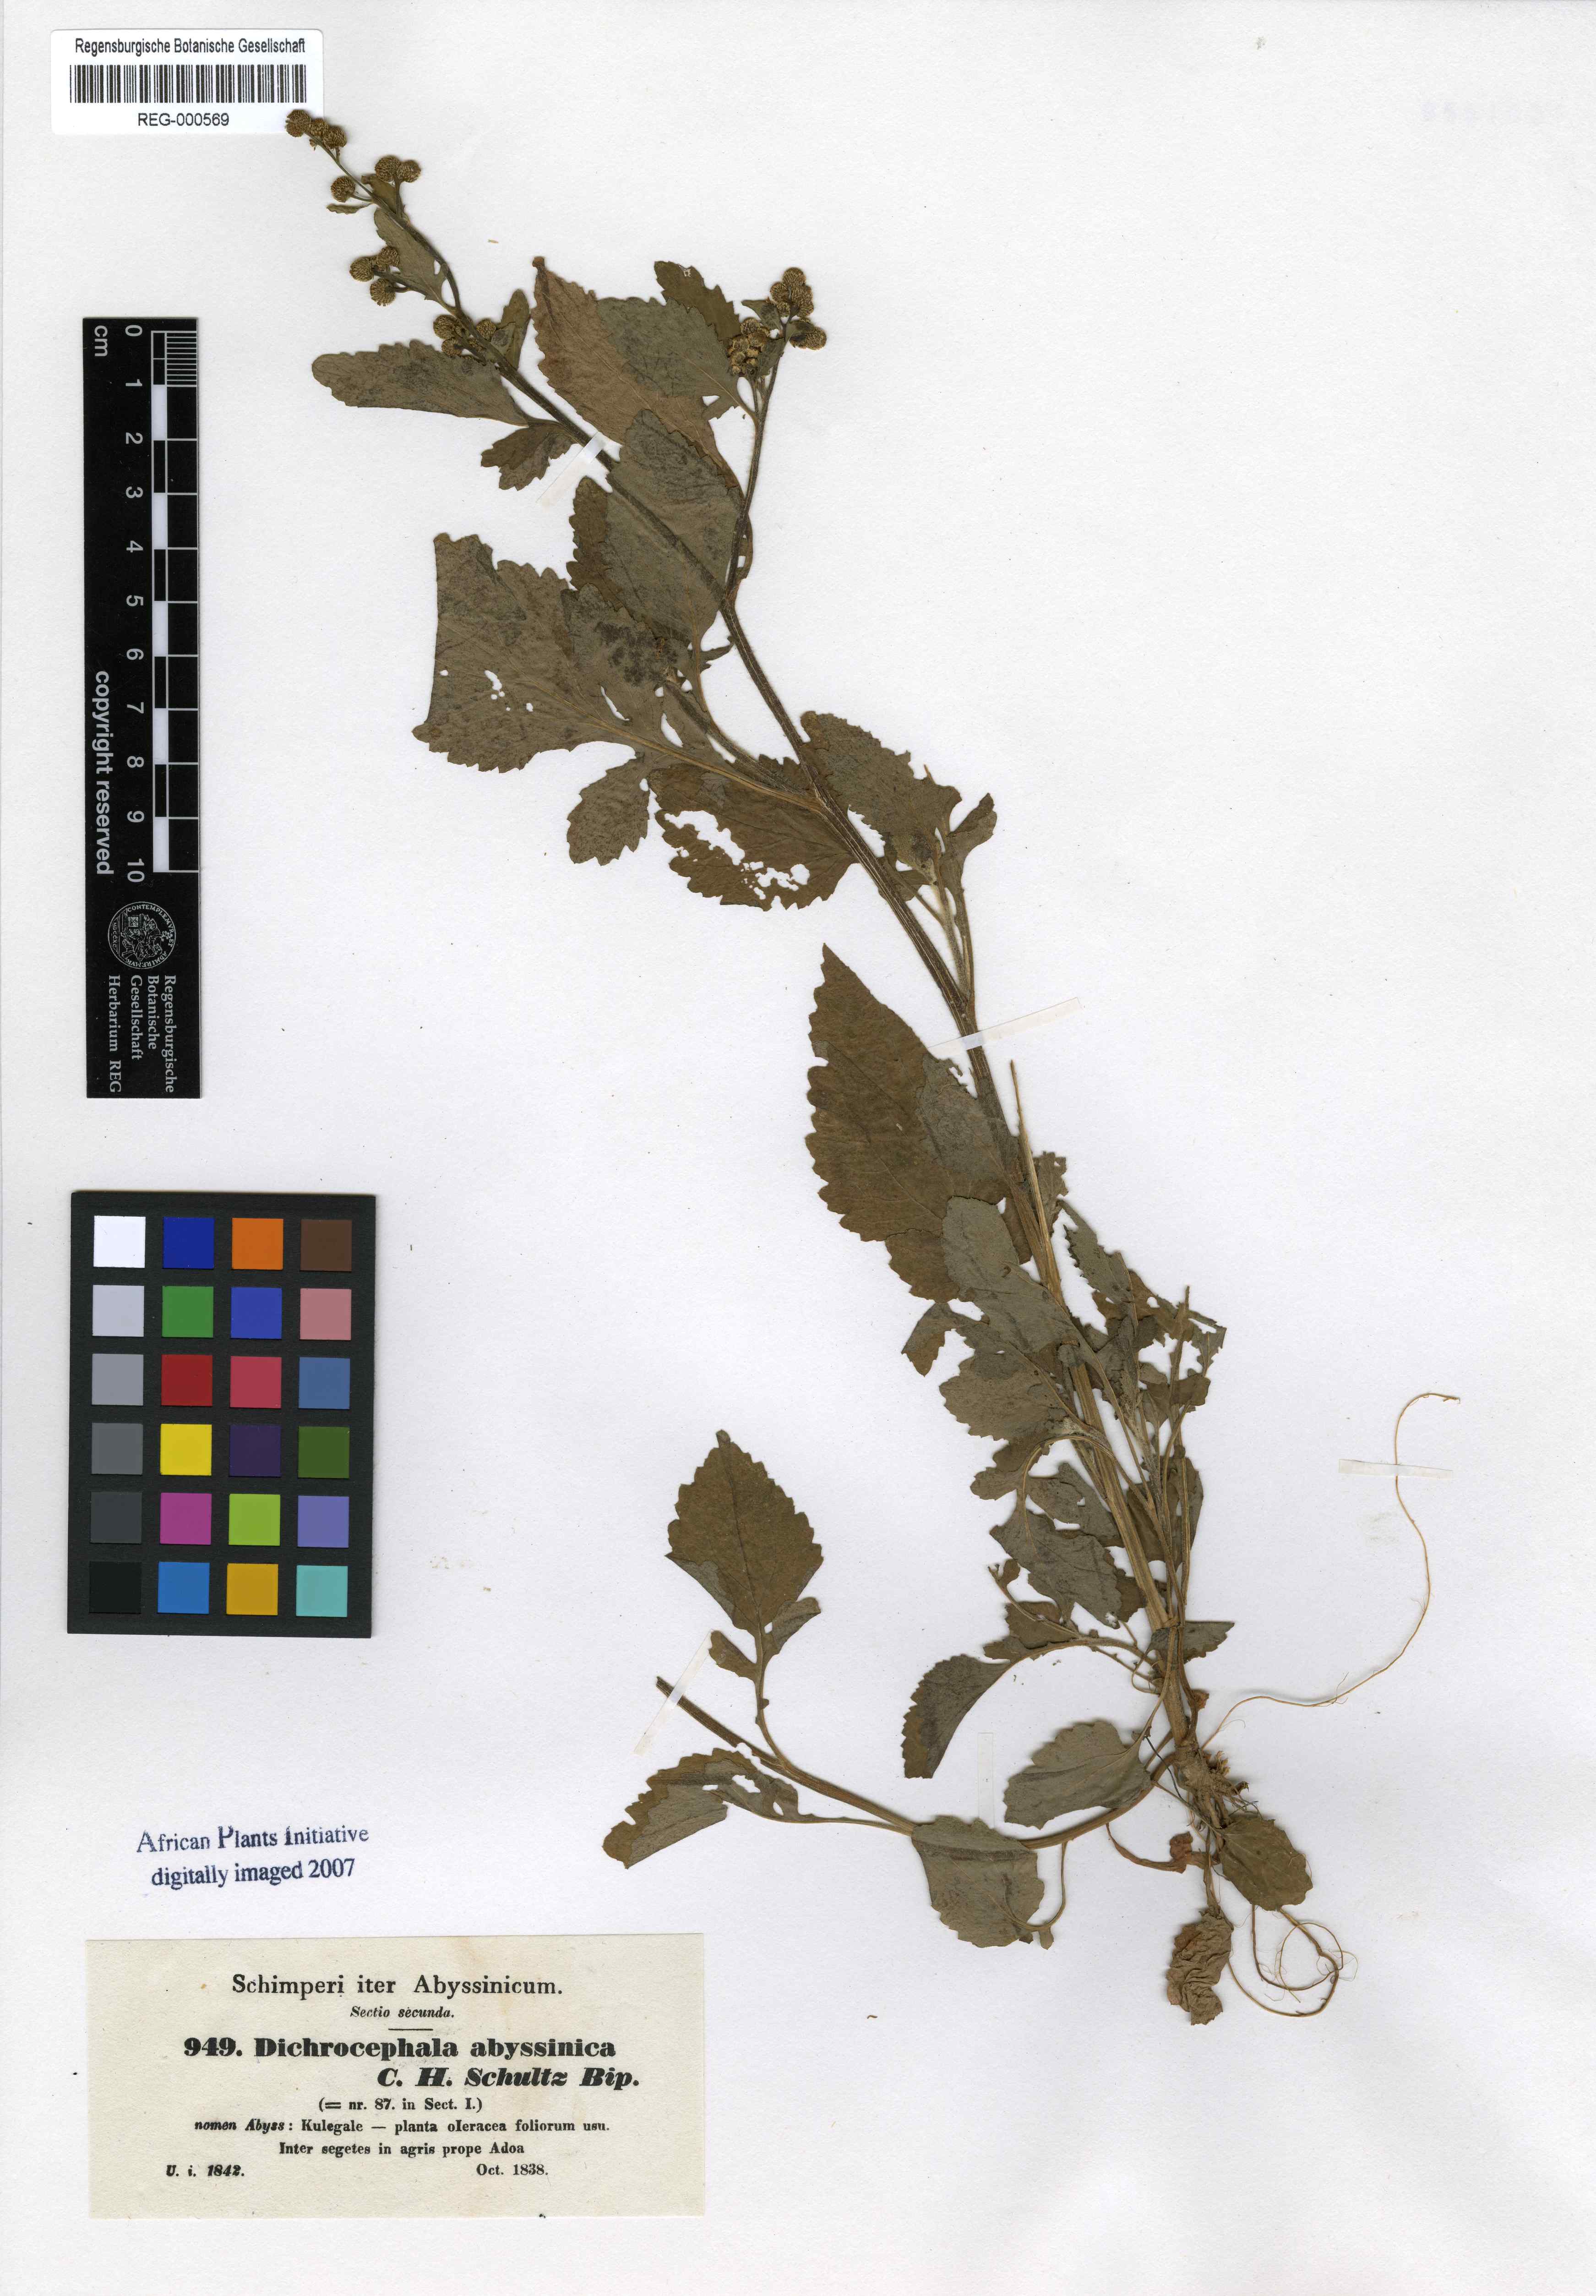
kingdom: Plantae
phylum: Tracheophyta
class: Magnoliopsida
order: Asterales
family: Asteraceae
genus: Dichrocephala
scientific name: Dichrocephala chrysanthemifolia
